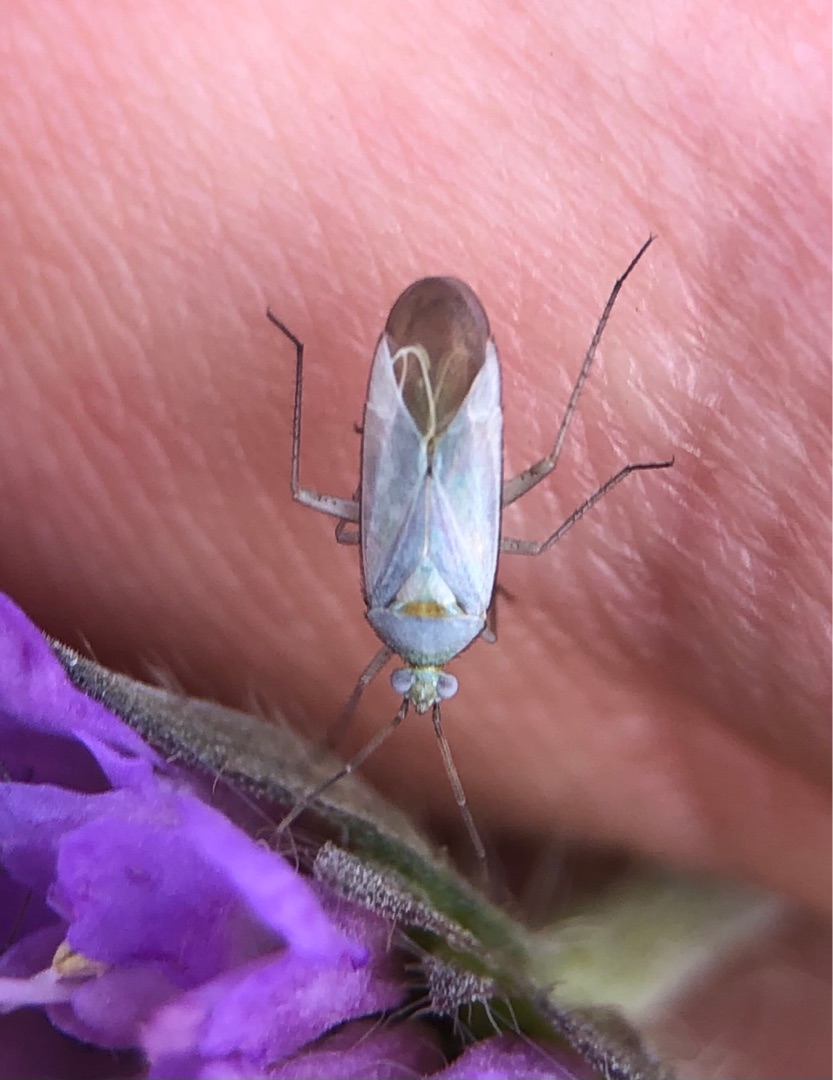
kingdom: Animalia
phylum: Arthropoda
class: Insecta
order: Hemiptera
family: Miridae
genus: Placochilus
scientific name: Placochilus seladonicus
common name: Blåhatblomstertæge
